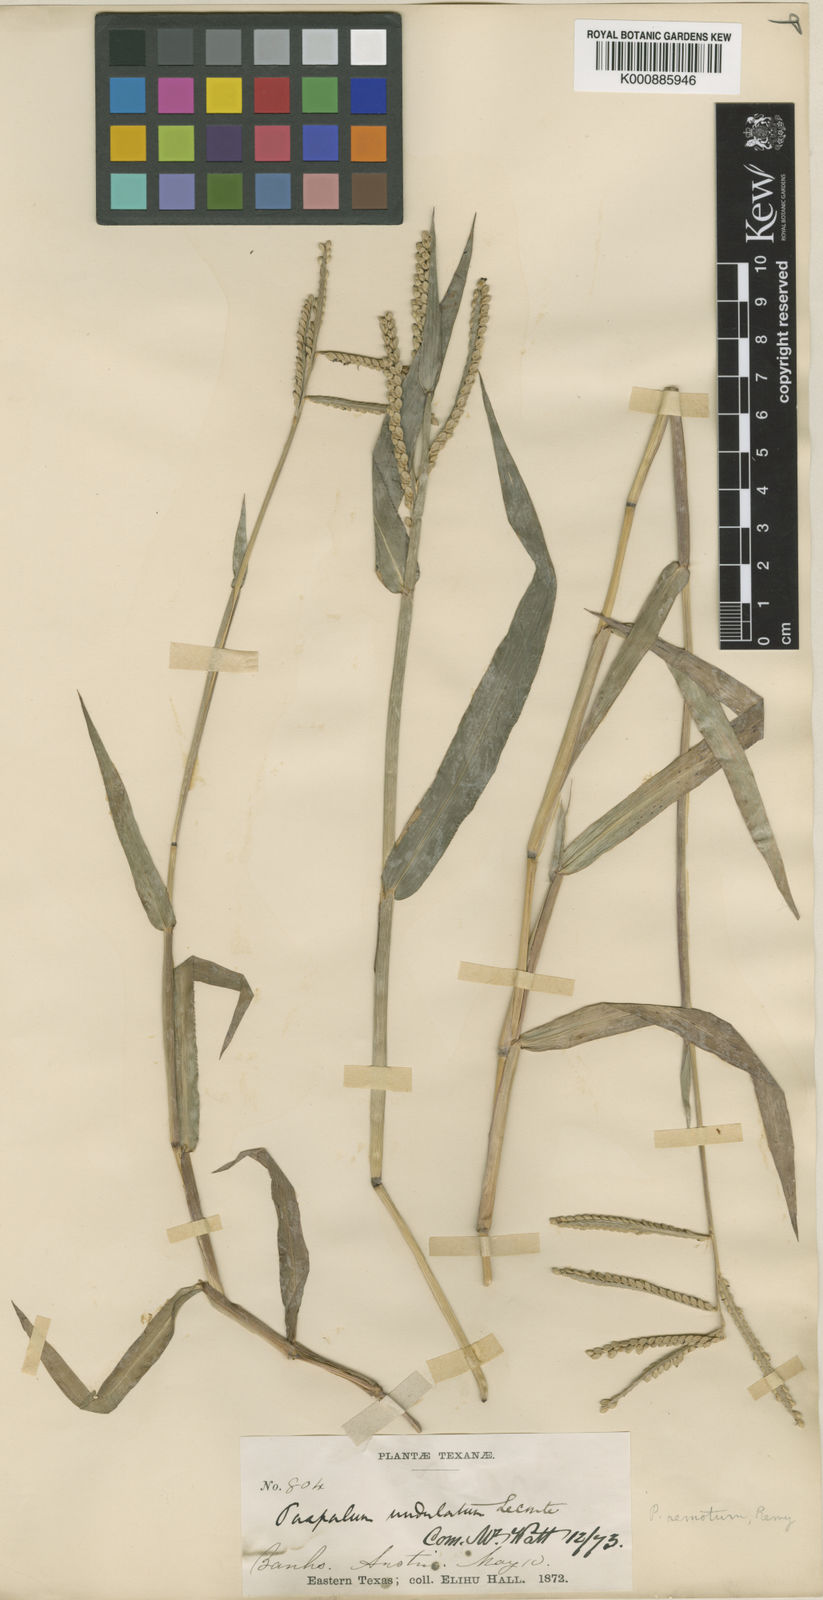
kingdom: Plantae
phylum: Tracheophyta
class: Liliopsida
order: Poales
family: Poaceae
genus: Paspalum
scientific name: Paspalum
